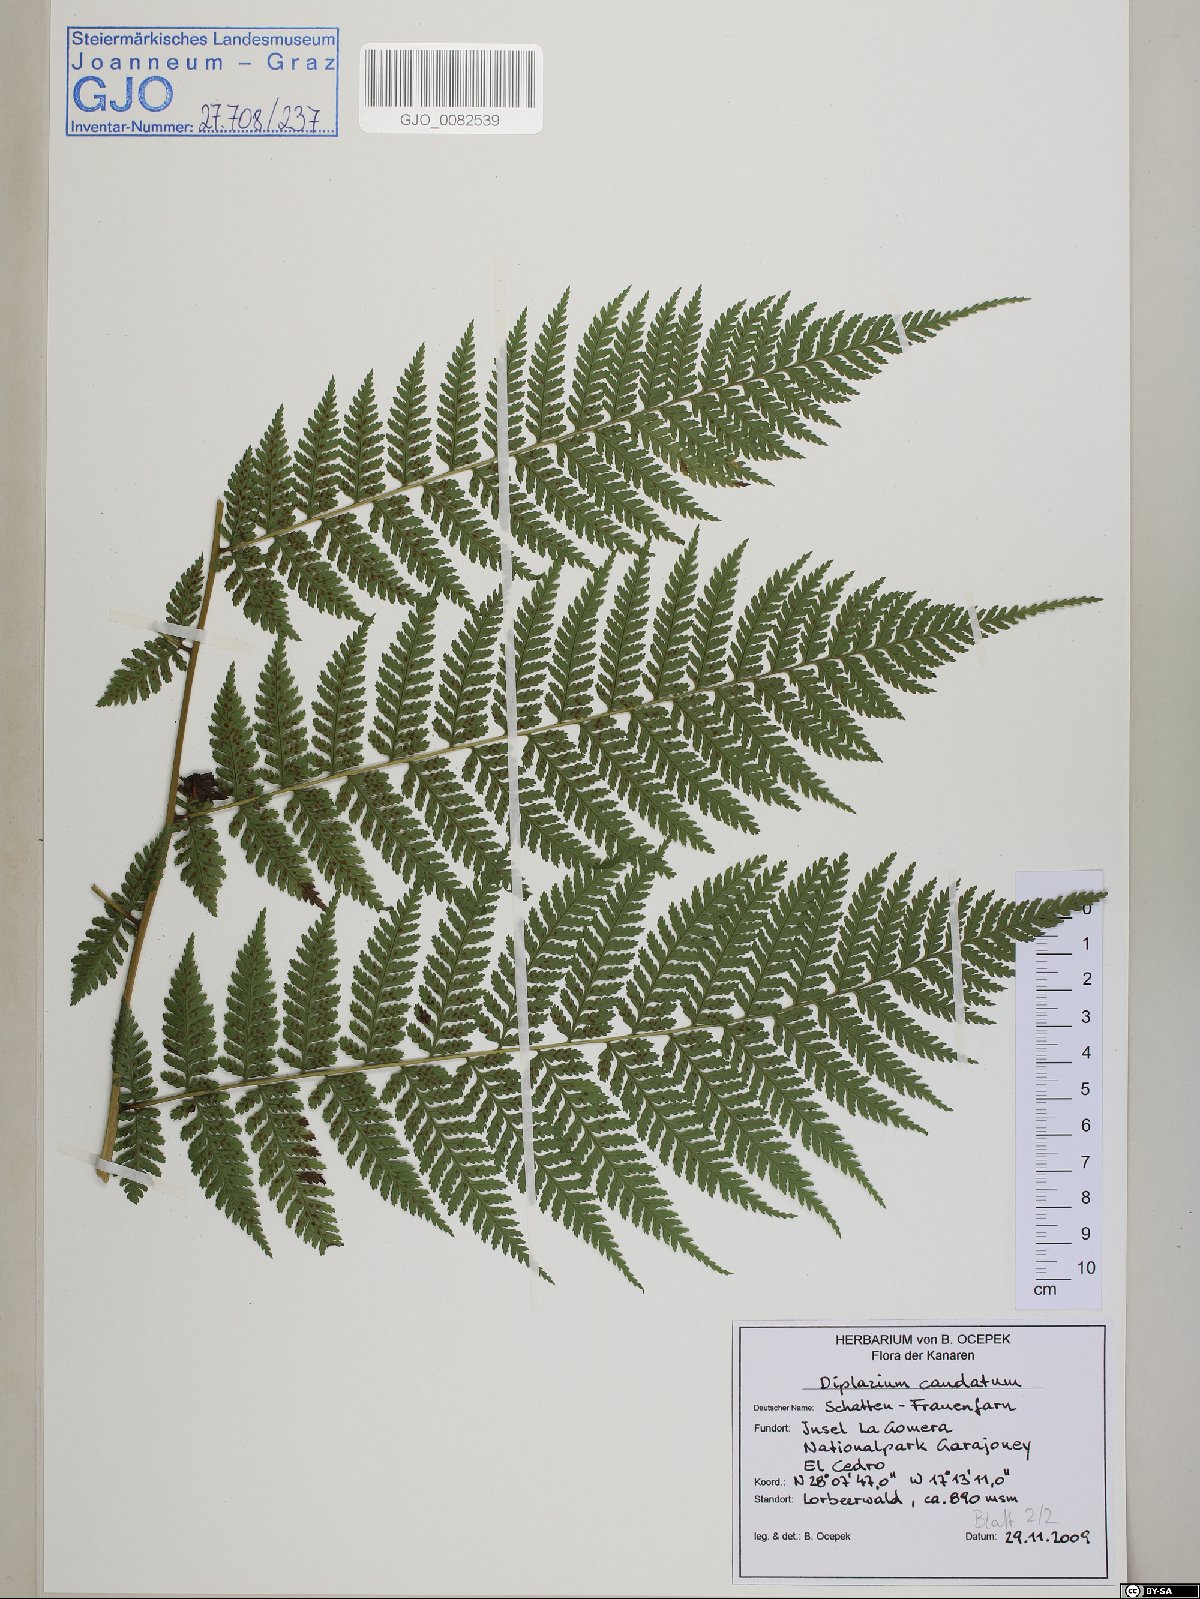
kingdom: Plantae
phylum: Tracheophyta
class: Polypodiopsida
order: Polypodiales
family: Athyriaceae
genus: Diplazium
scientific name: Diplazium caudatum
